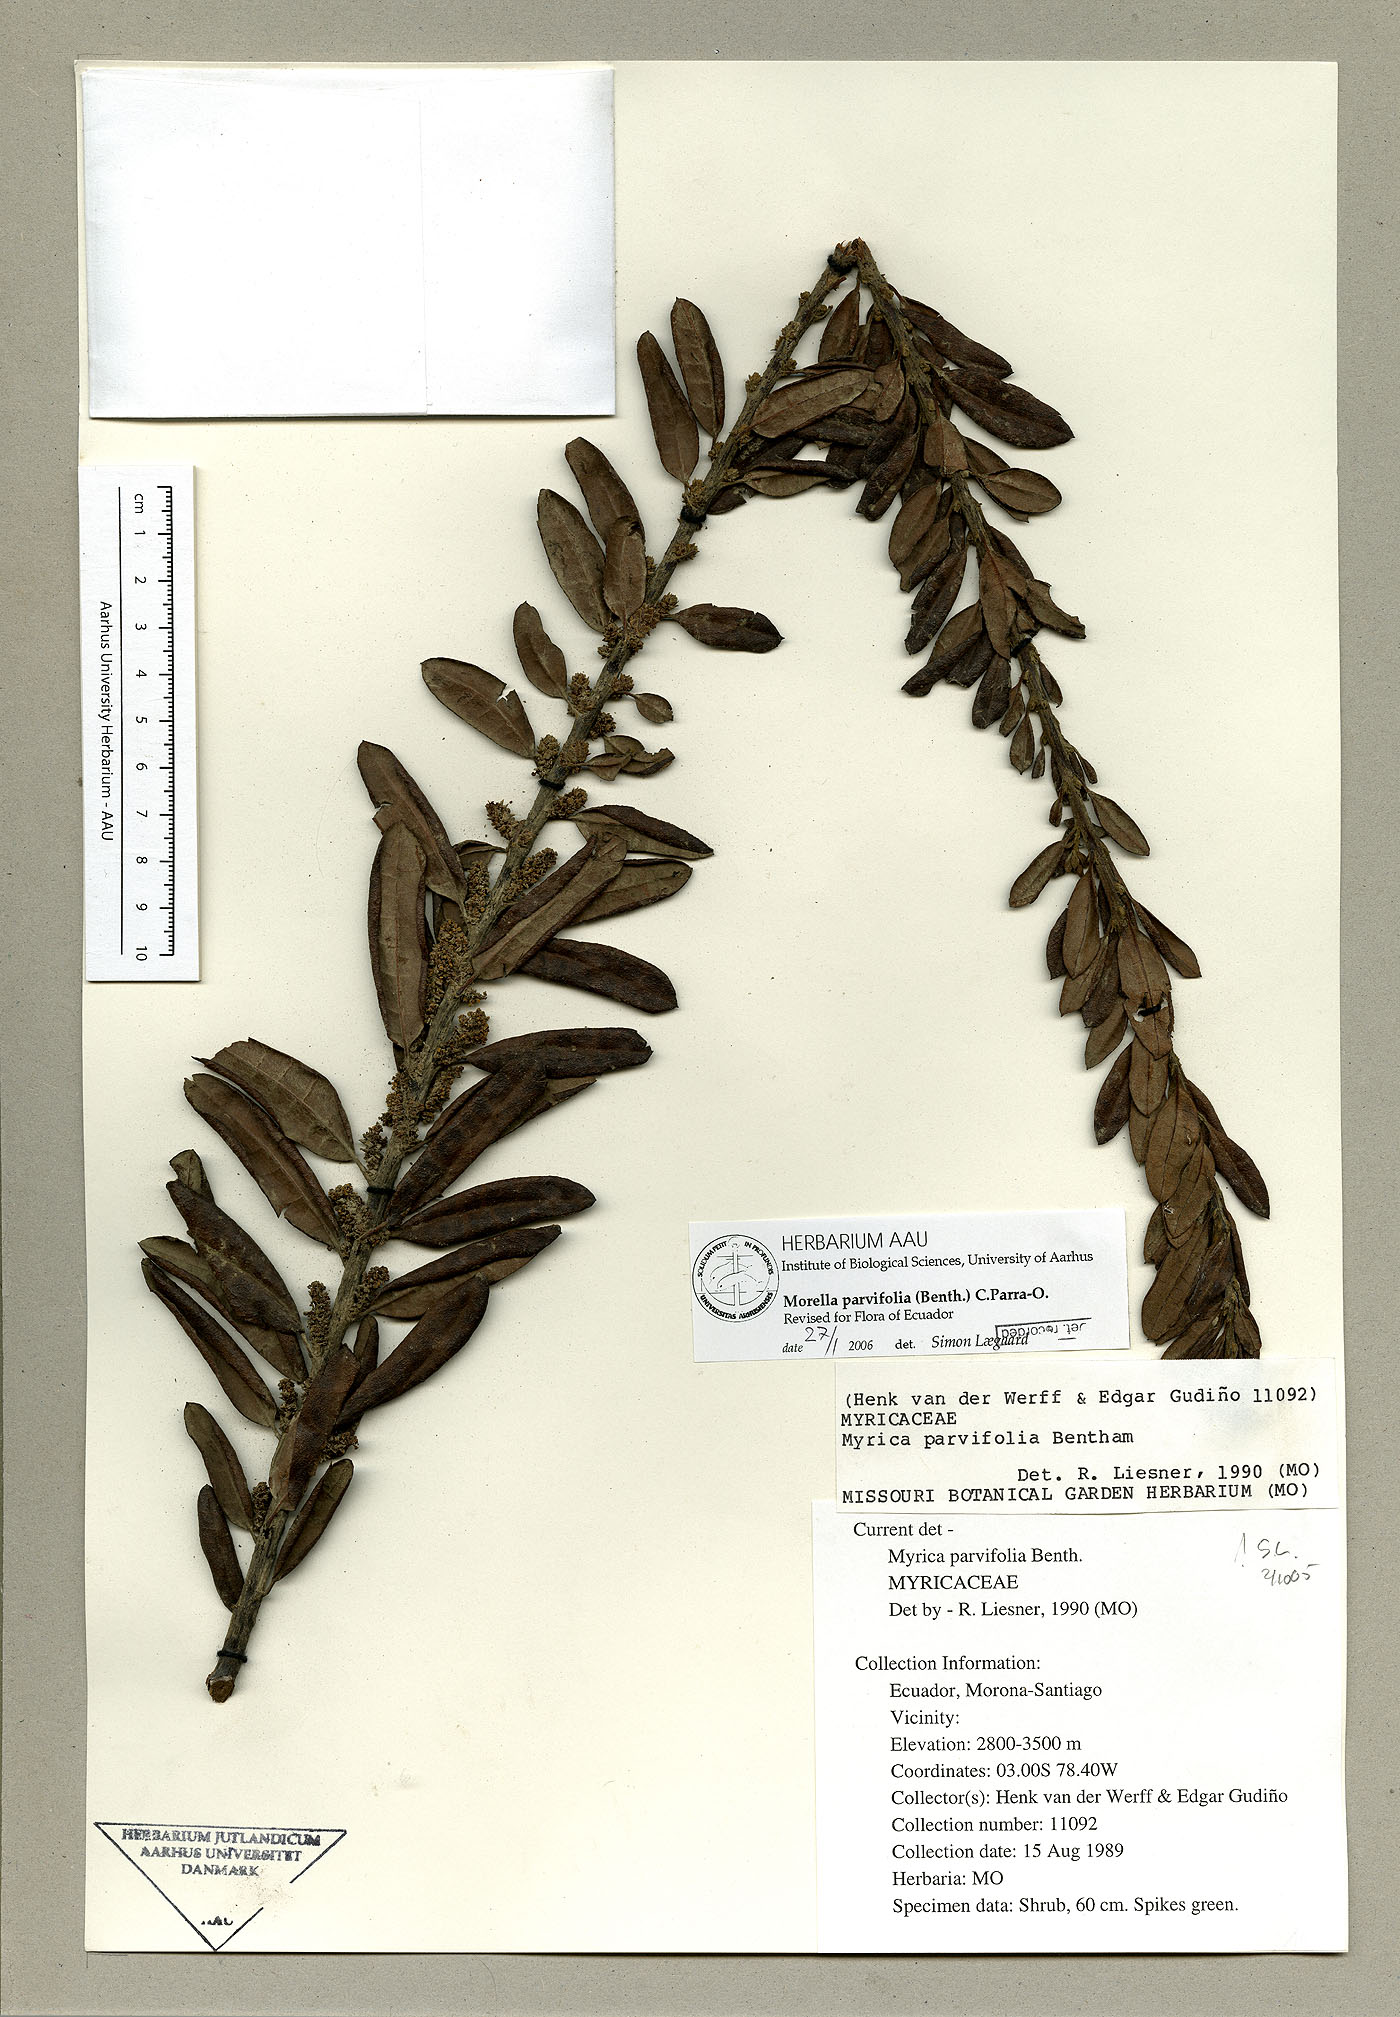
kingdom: Plantae
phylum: Tracheophyta
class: Magnoliopsida
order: Fagales
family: Myricaceae
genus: Morella
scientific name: Morella parvifolia
